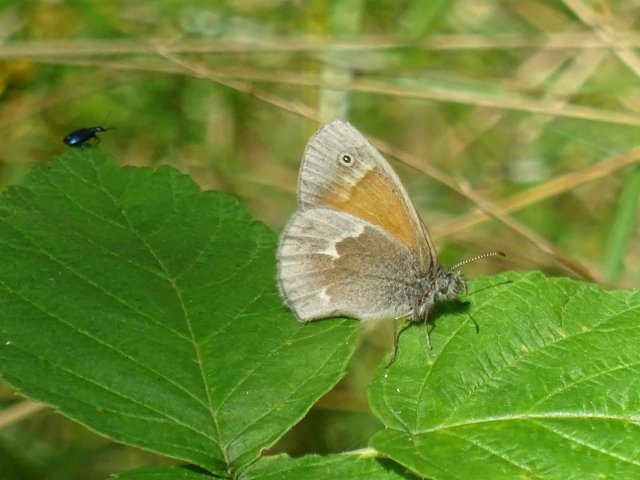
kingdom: Animalia
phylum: Arthropoda
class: Insecta
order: Lepidoptera
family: Nymphalidae
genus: Coenonympha
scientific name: Coenonympha tullia
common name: Large Heath
